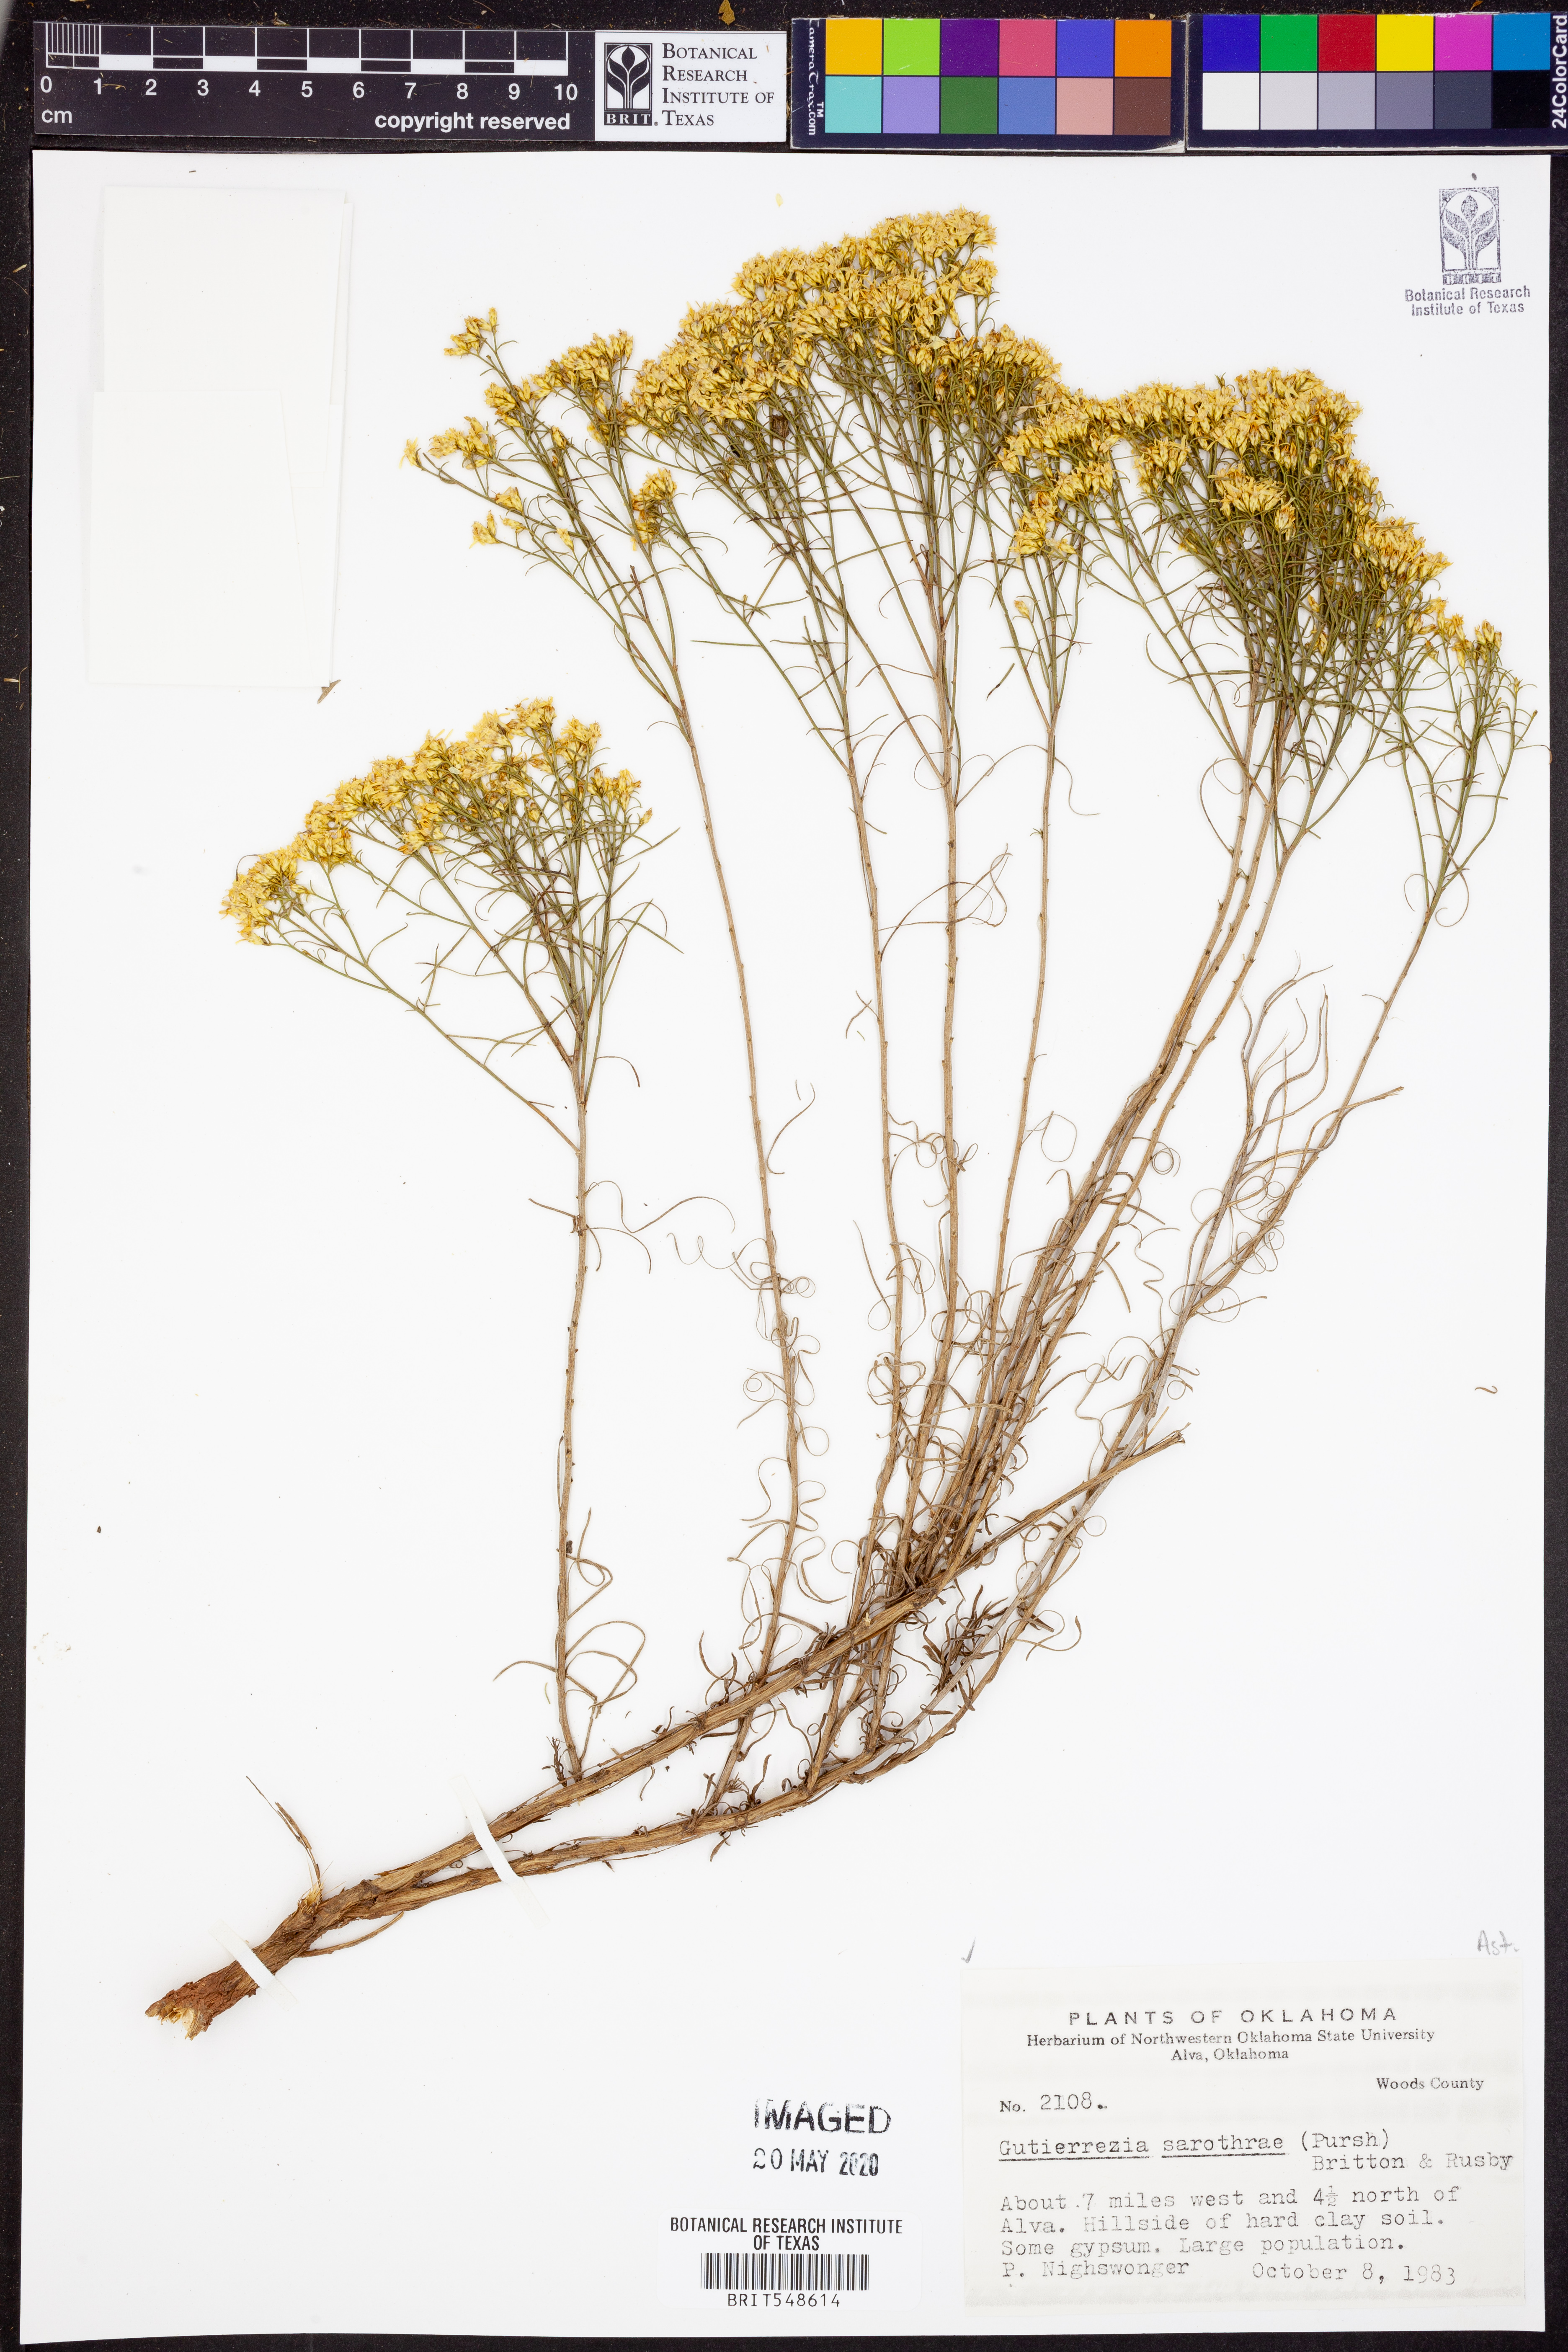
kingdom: Plantae
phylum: Tracheophyta
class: Magnoliopsida
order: Asterales
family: Asteraceae
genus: Gutierrezia
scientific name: Gutierrezia sarothrae
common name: Broom snakeweed
